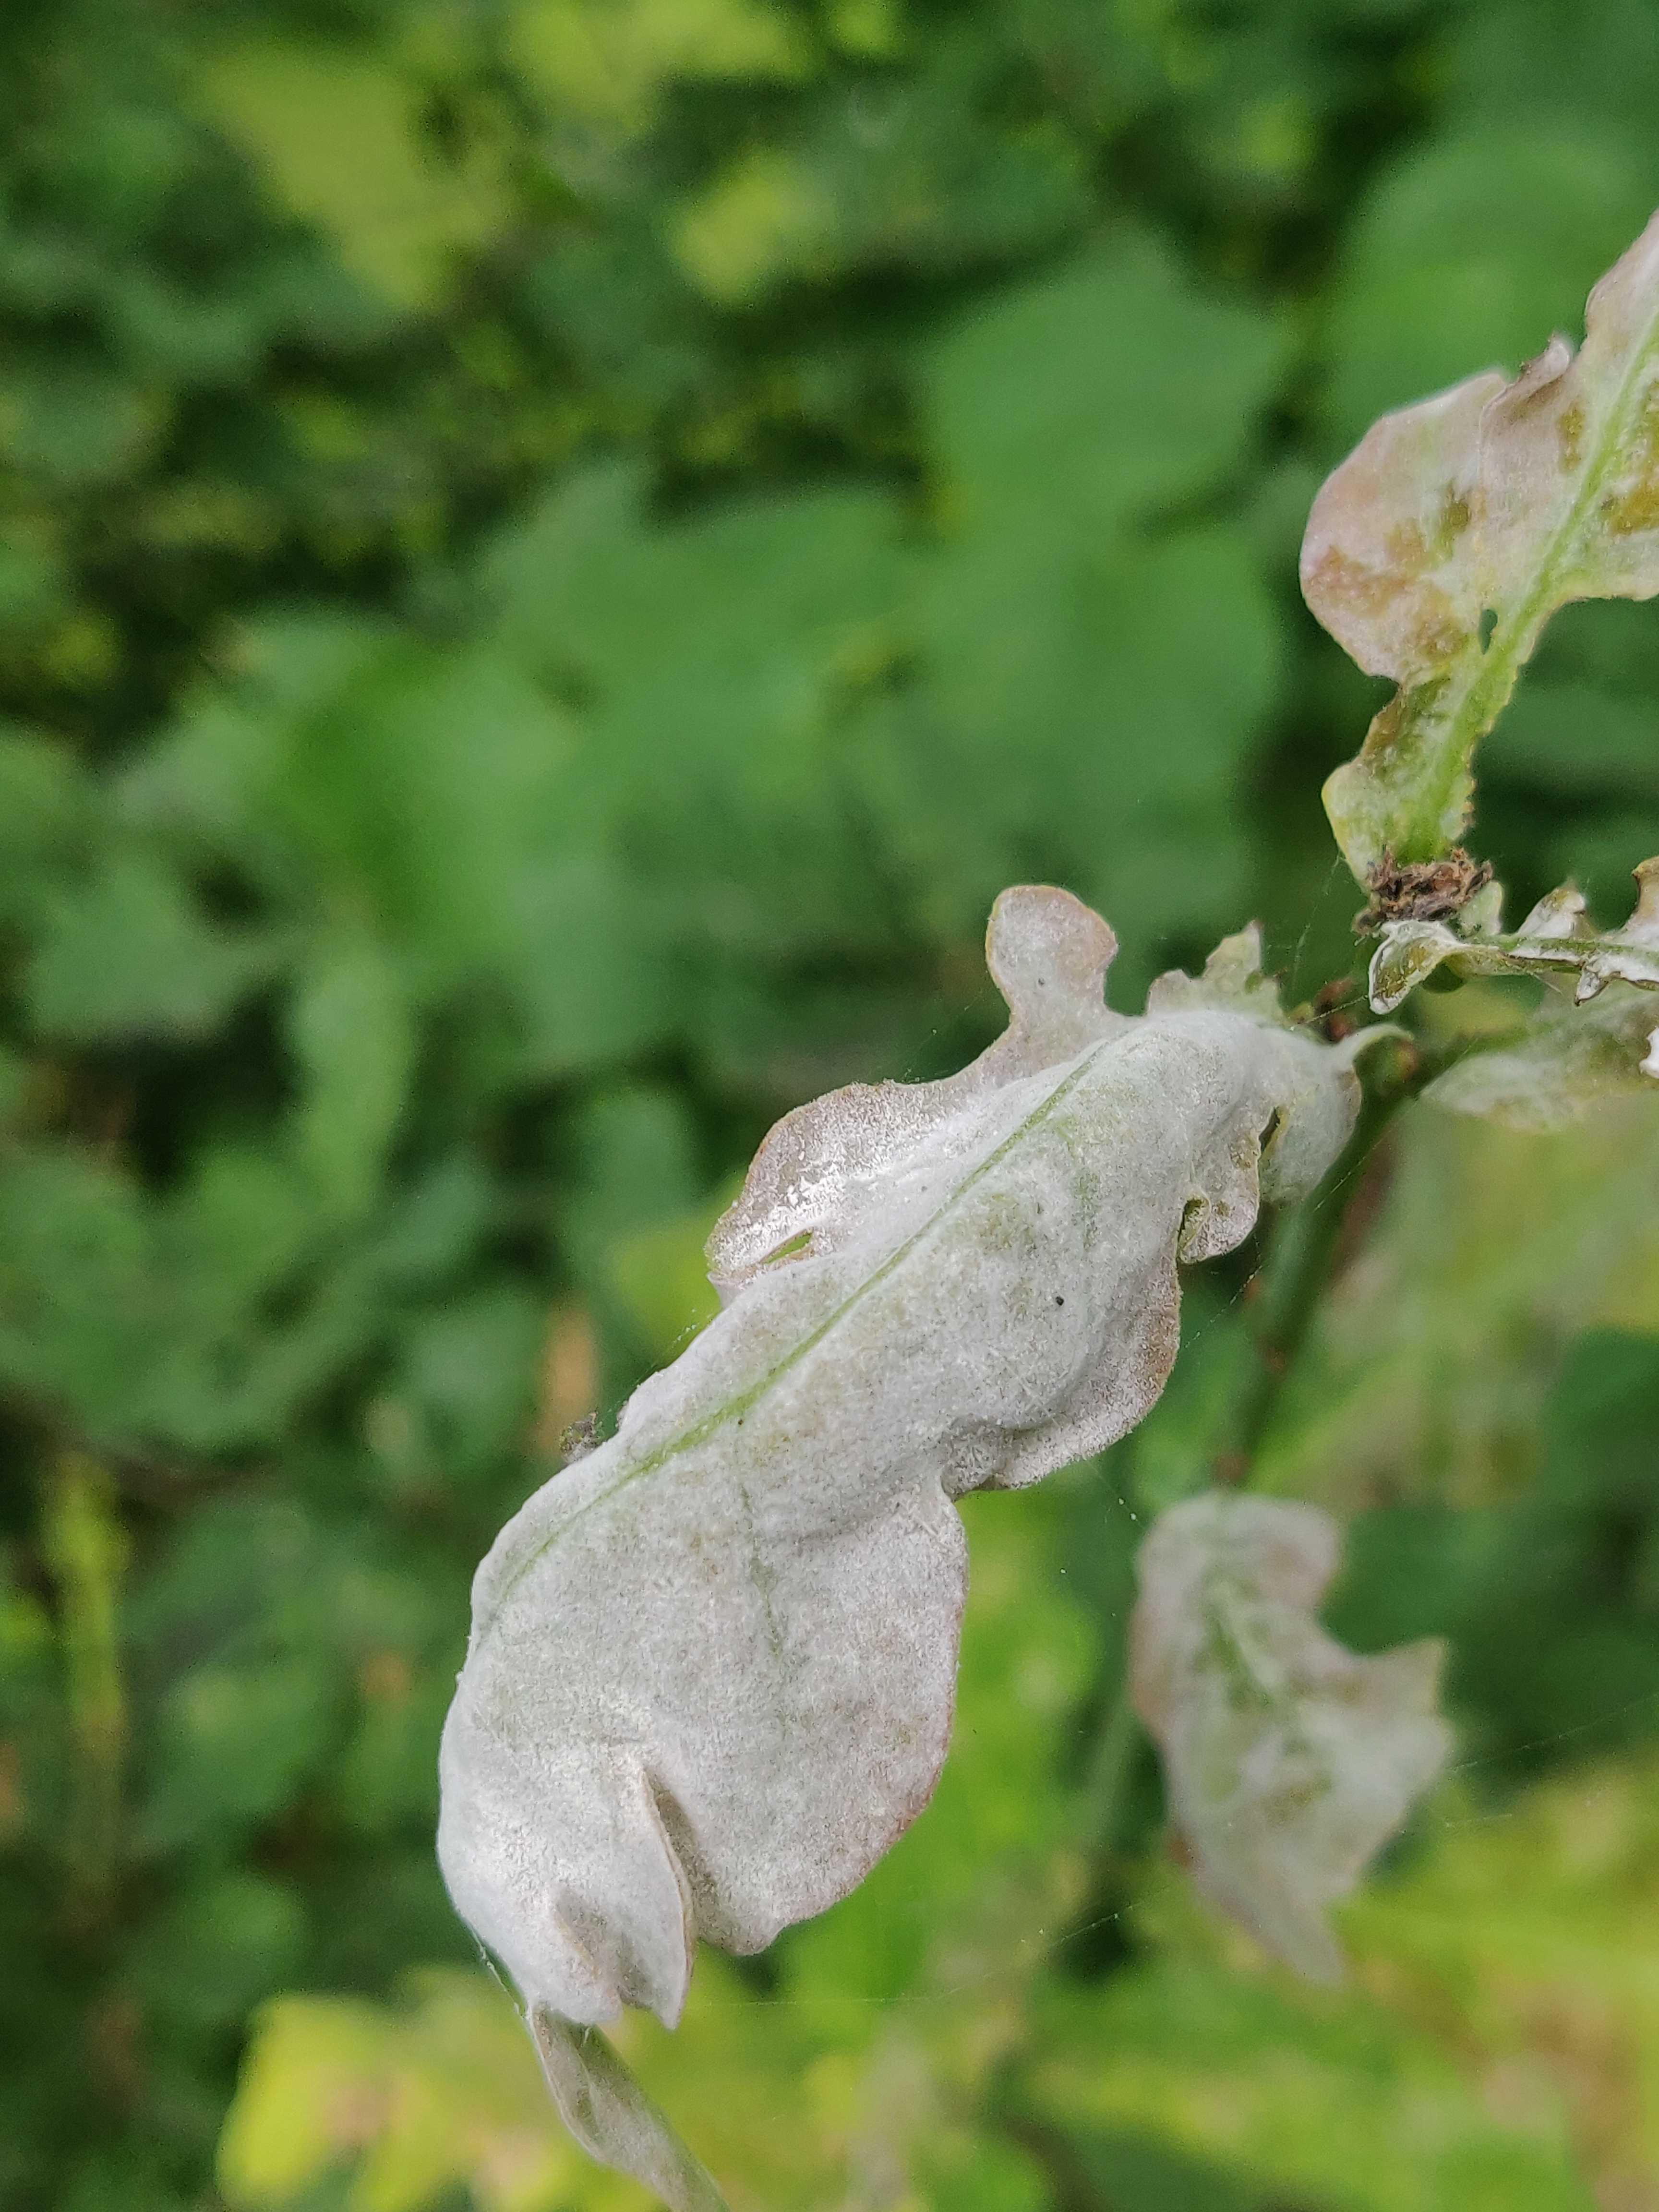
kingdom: Fungi
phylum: Ascomycota
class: Leotiomycetes
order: Helotiales
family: Erysiphaceae
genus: Erysiphe
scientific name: Erysiphe alphitoides
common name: ege-meldug
